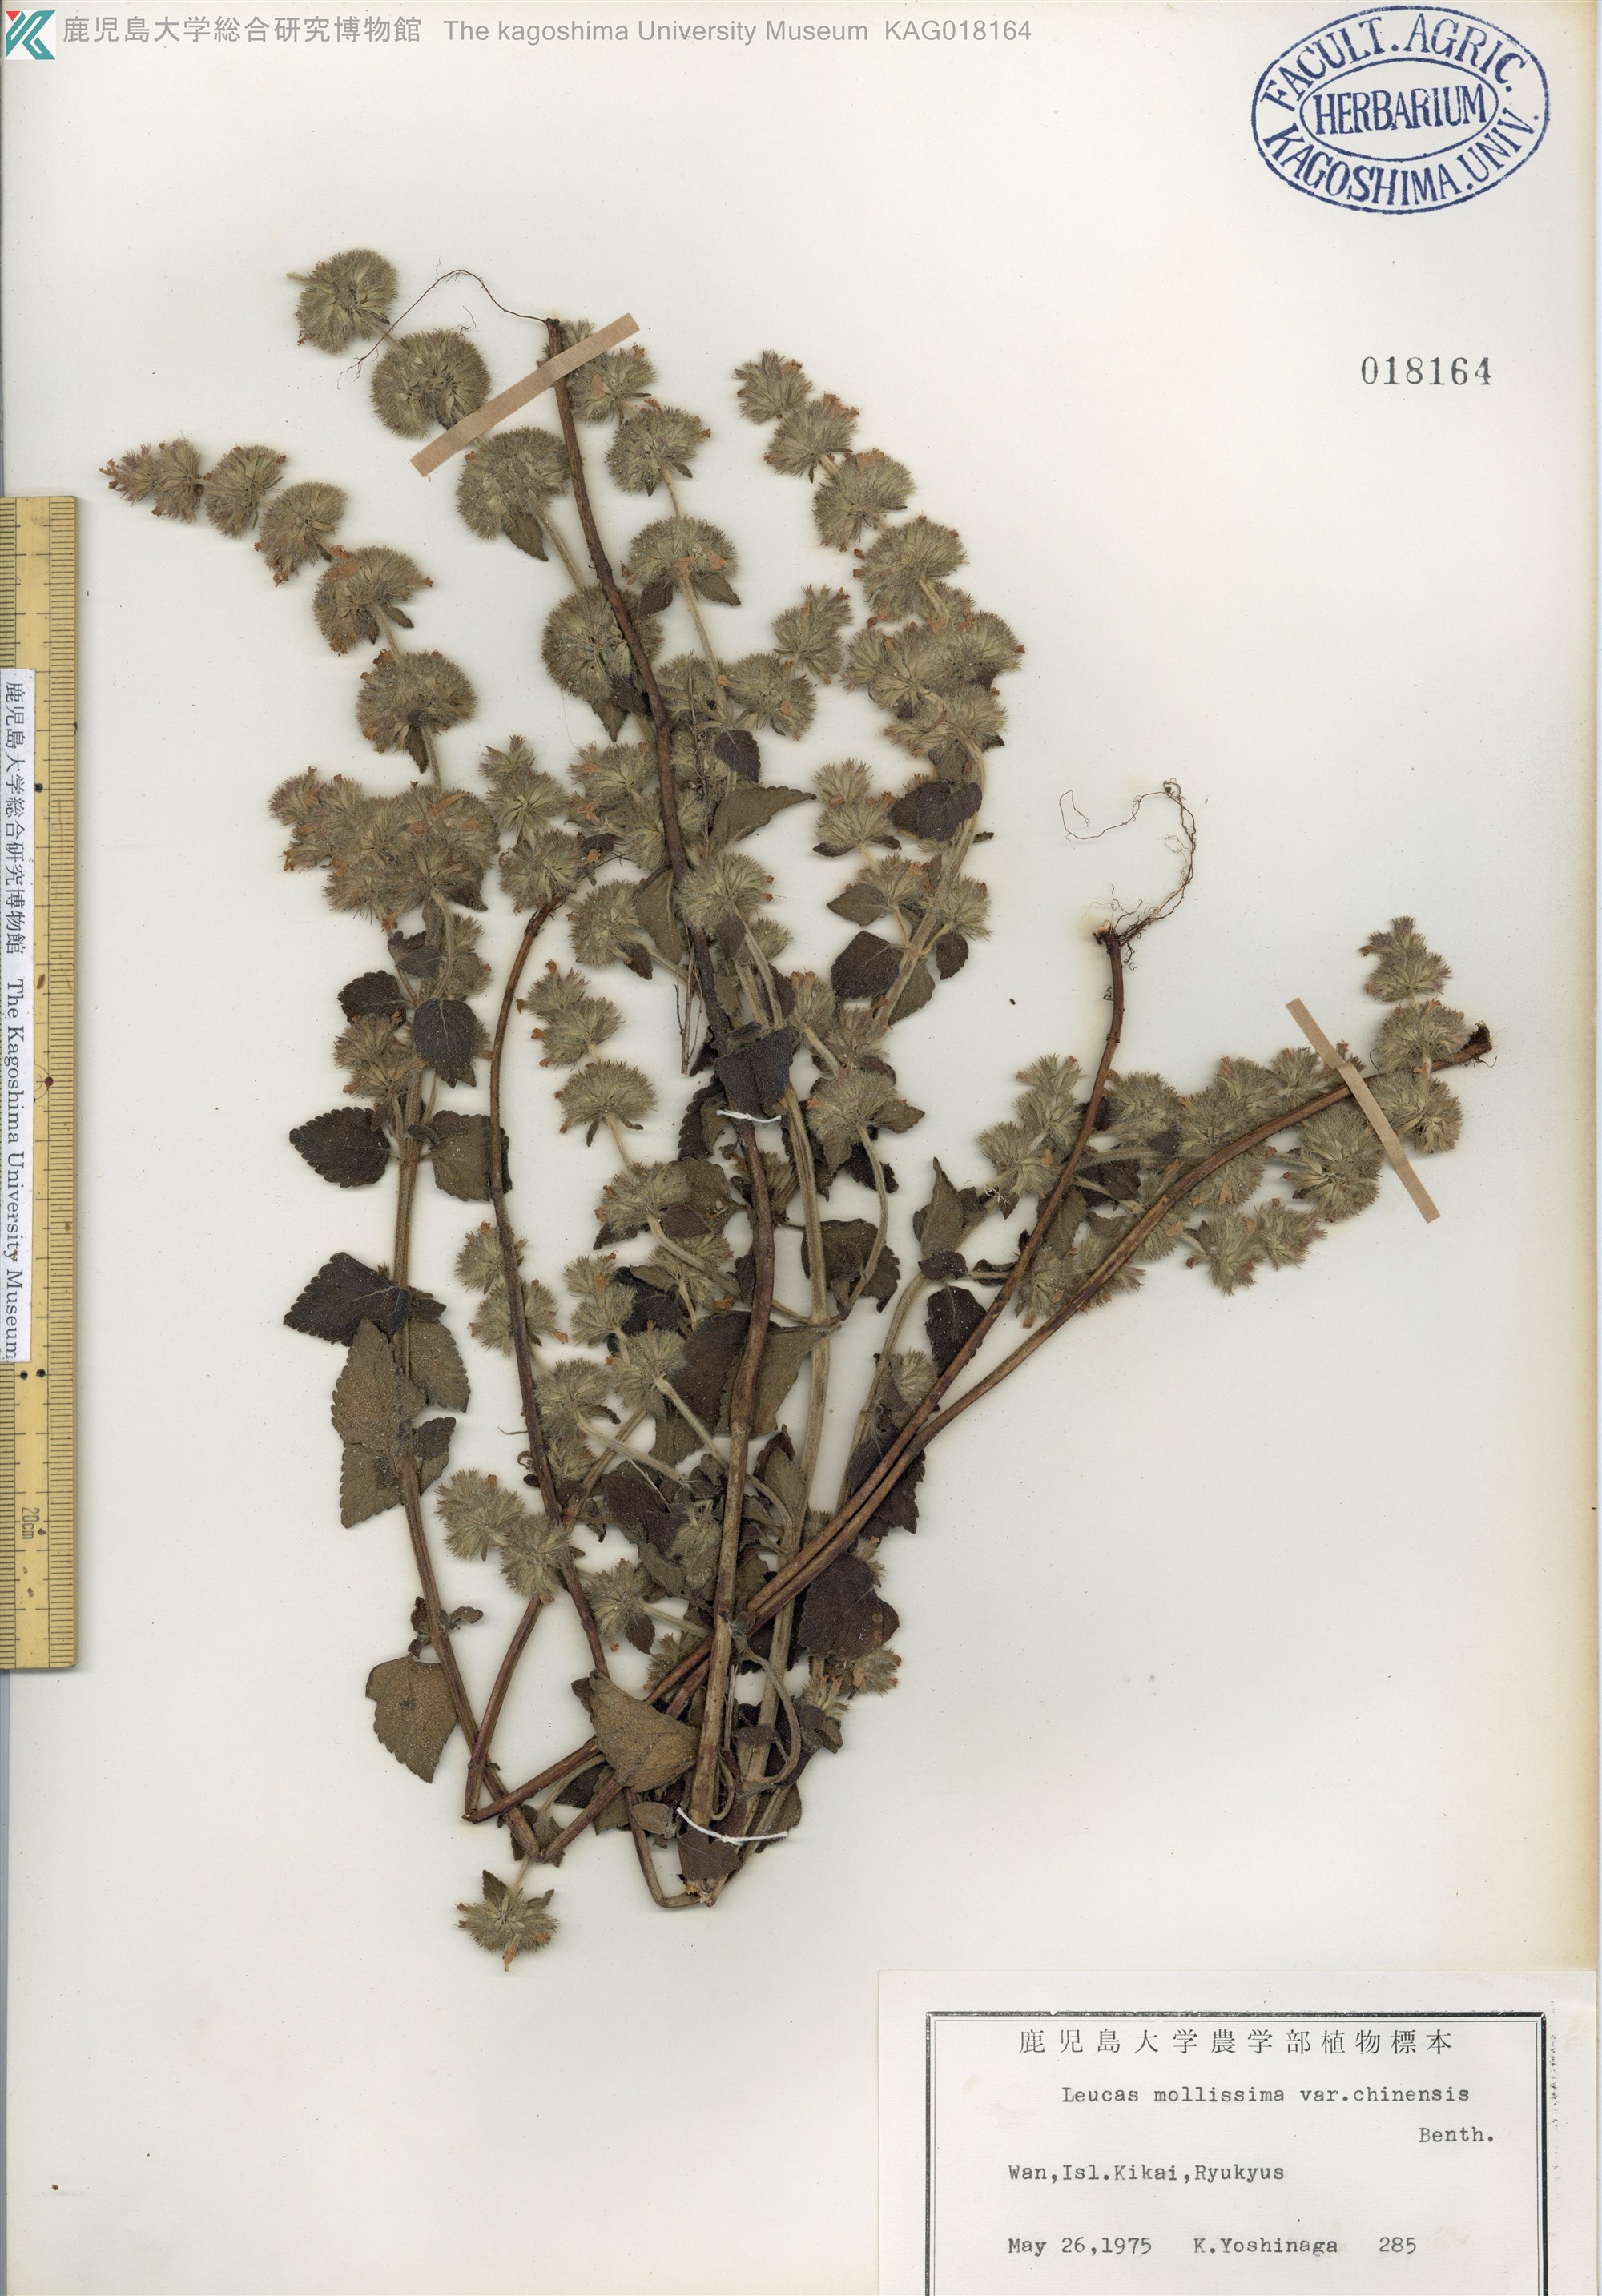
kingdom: Plantae
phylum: Tracheophyta
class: Magnoliopsida
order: Lamiales
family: Lamiaceae
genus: Leucas
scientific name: Leucas chinensis
